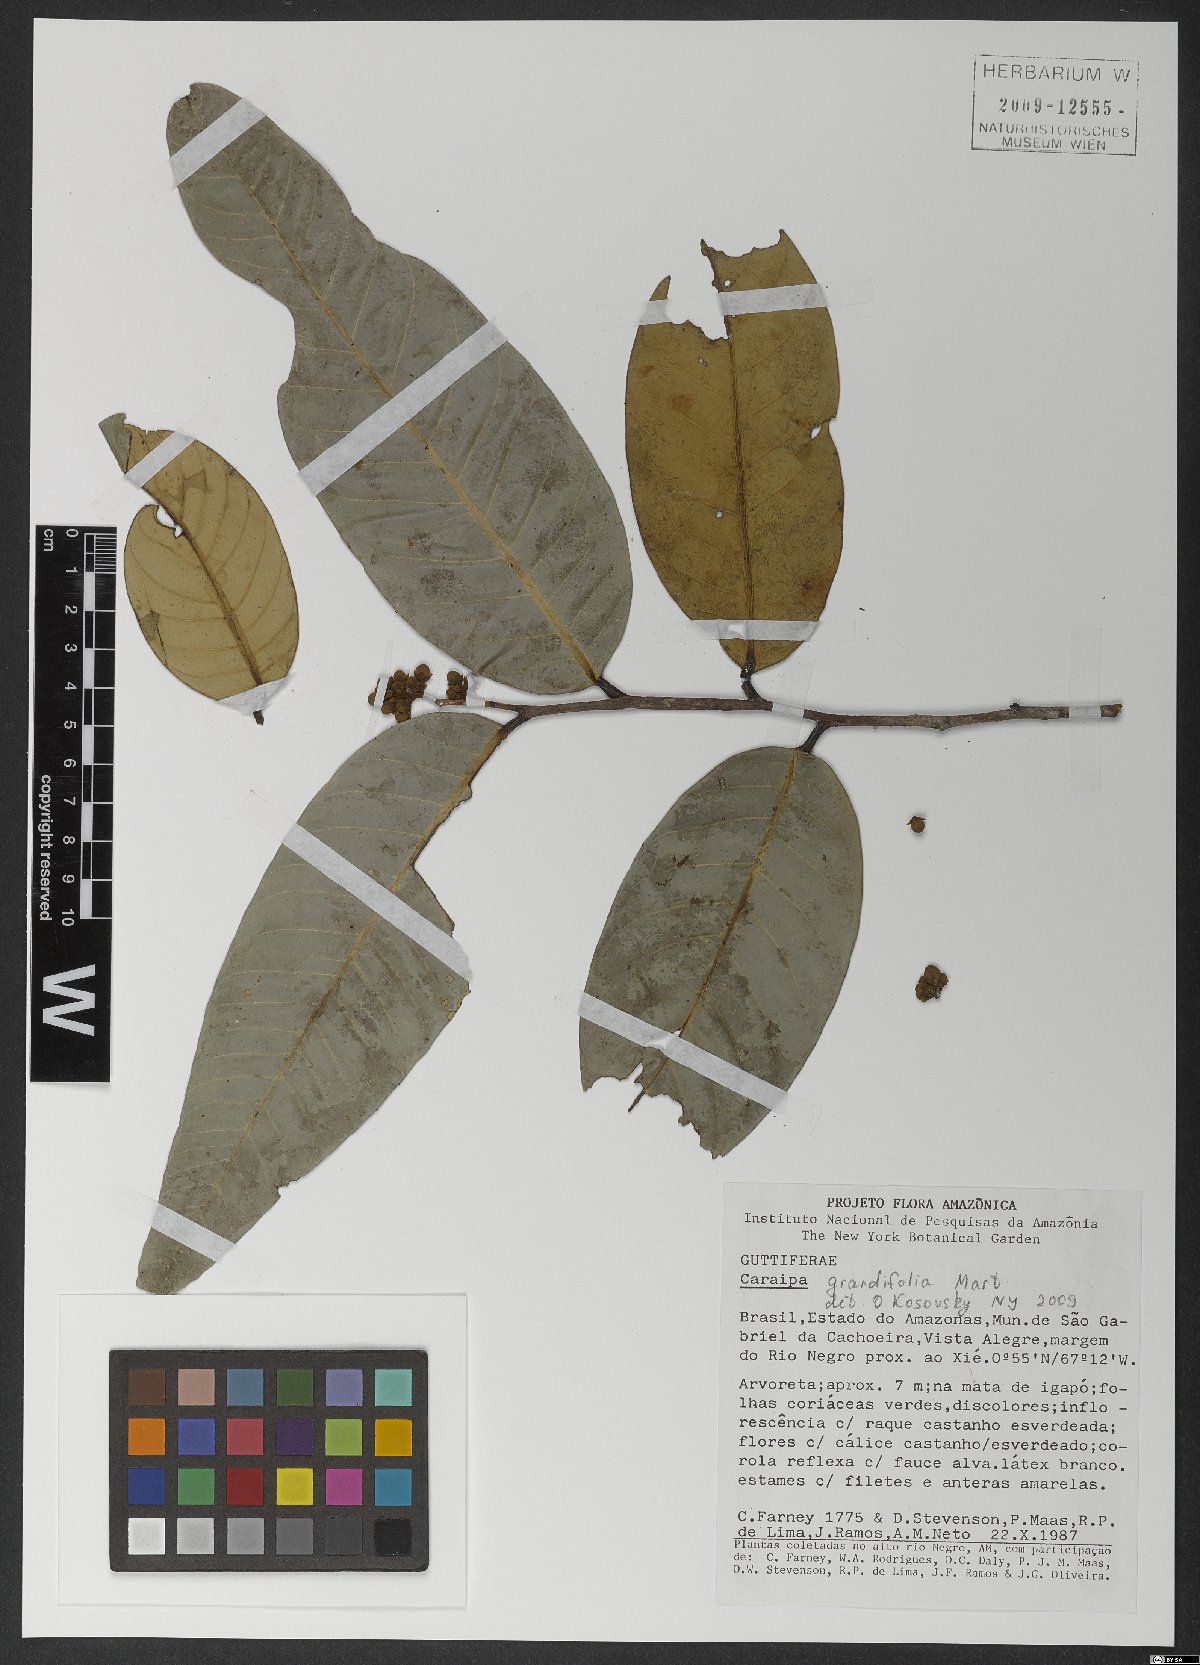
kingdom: Plantae
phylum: Tracheophyta
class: Magnoliopsida
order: Malpighiales
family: Calophyllaceae
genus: Caraipa
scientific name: Caraipa grandifolia
